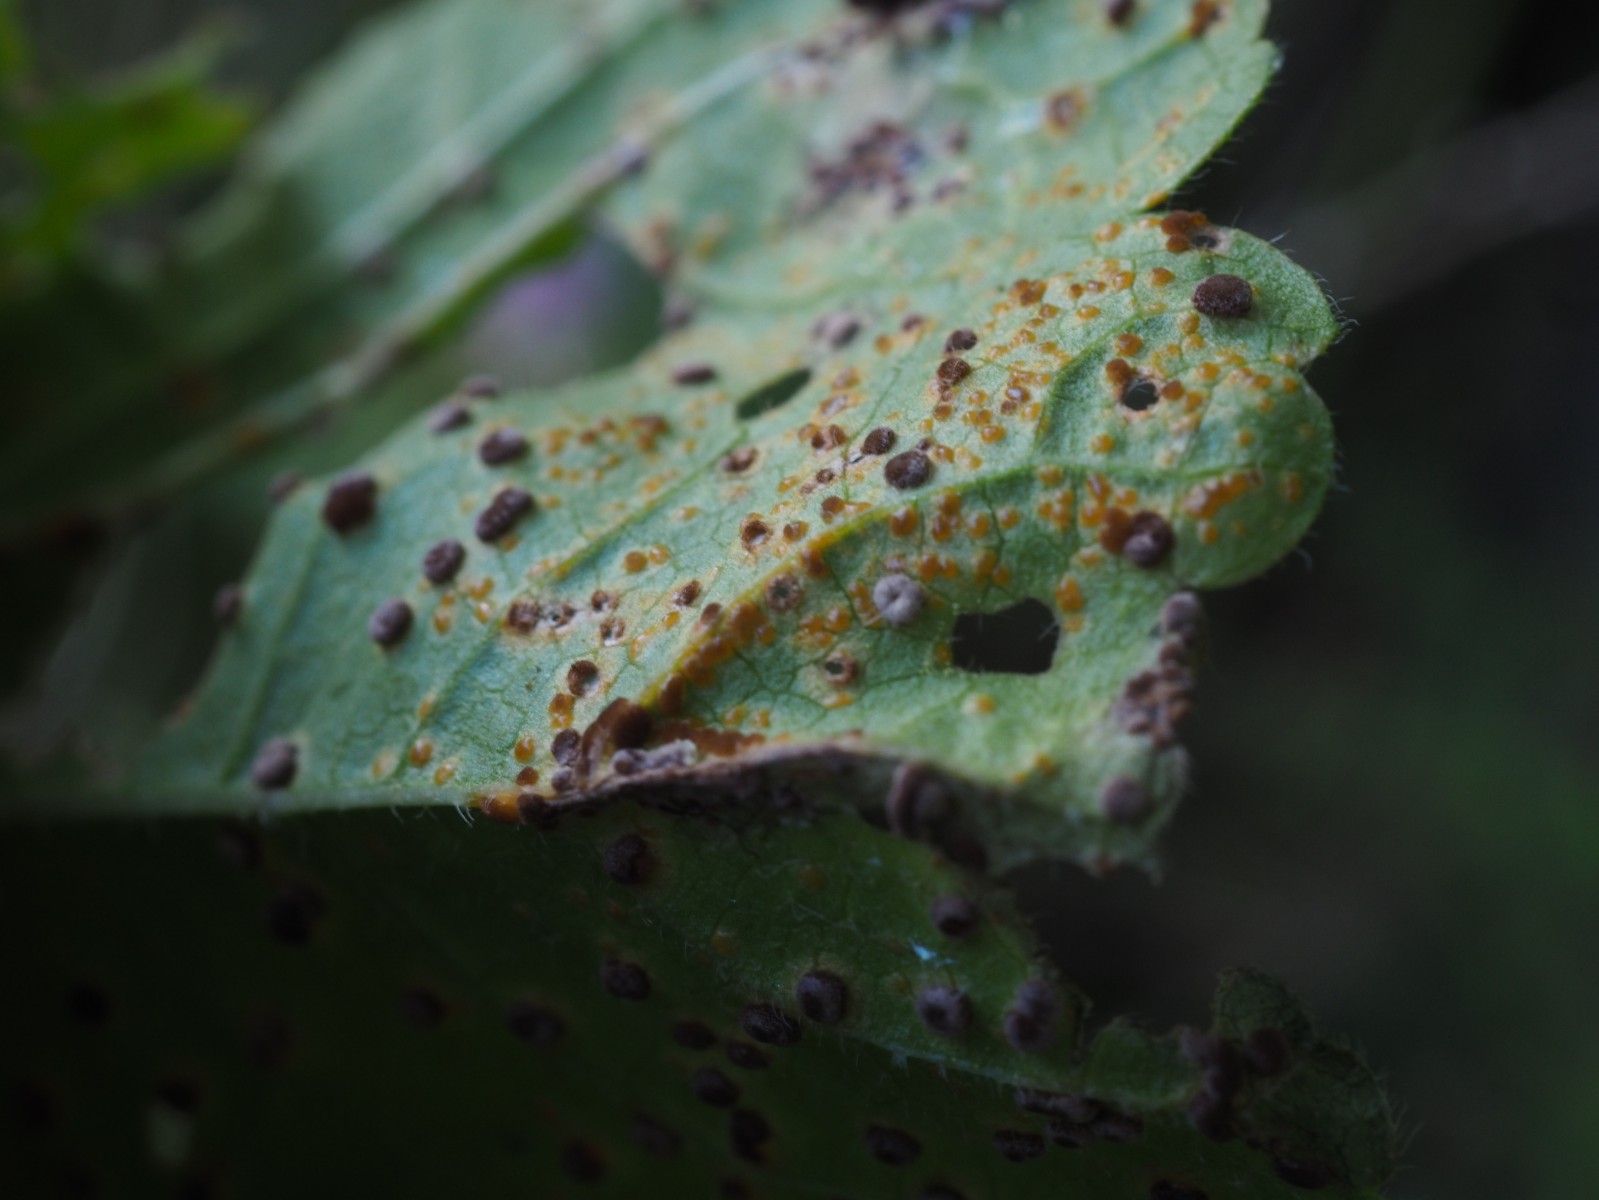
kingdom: Fungi
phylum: Basidiomycota
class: Pucciniomycetes
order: Pucciniales
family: Pucciniaceae
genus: Puccinia
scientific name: Puccinia malvacearum
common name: stokrose-tvecellerust
